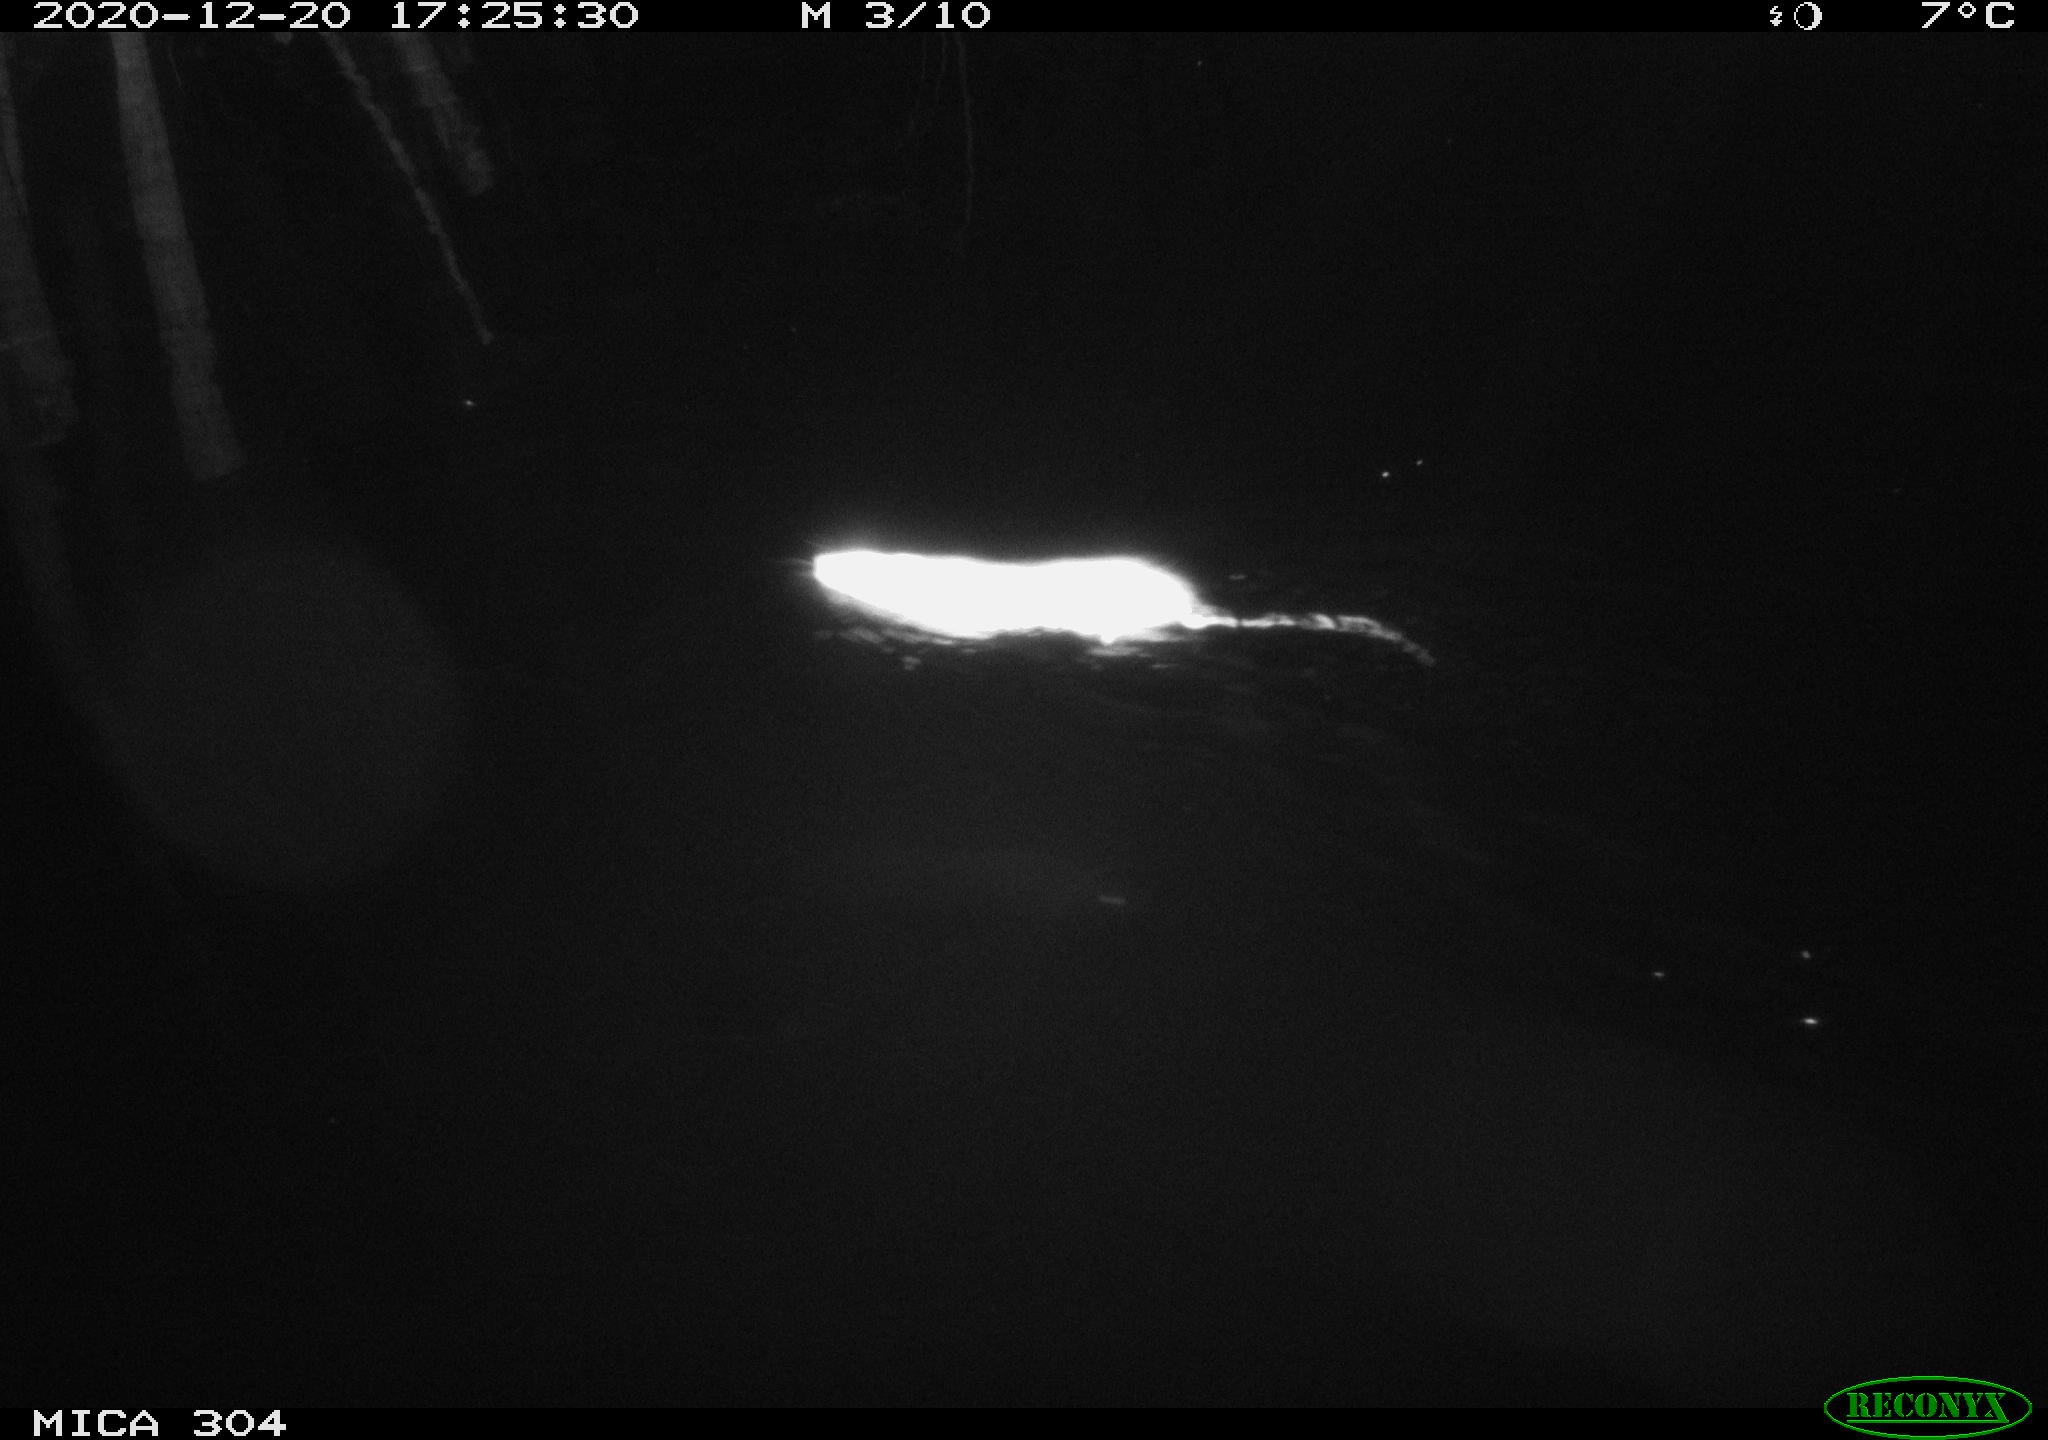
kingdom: Animalia
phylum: Chordata
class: Mammalia
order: Rodentia
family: Muridae
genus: Rattus
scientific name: Rattus norvegicus
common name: Brown rat
